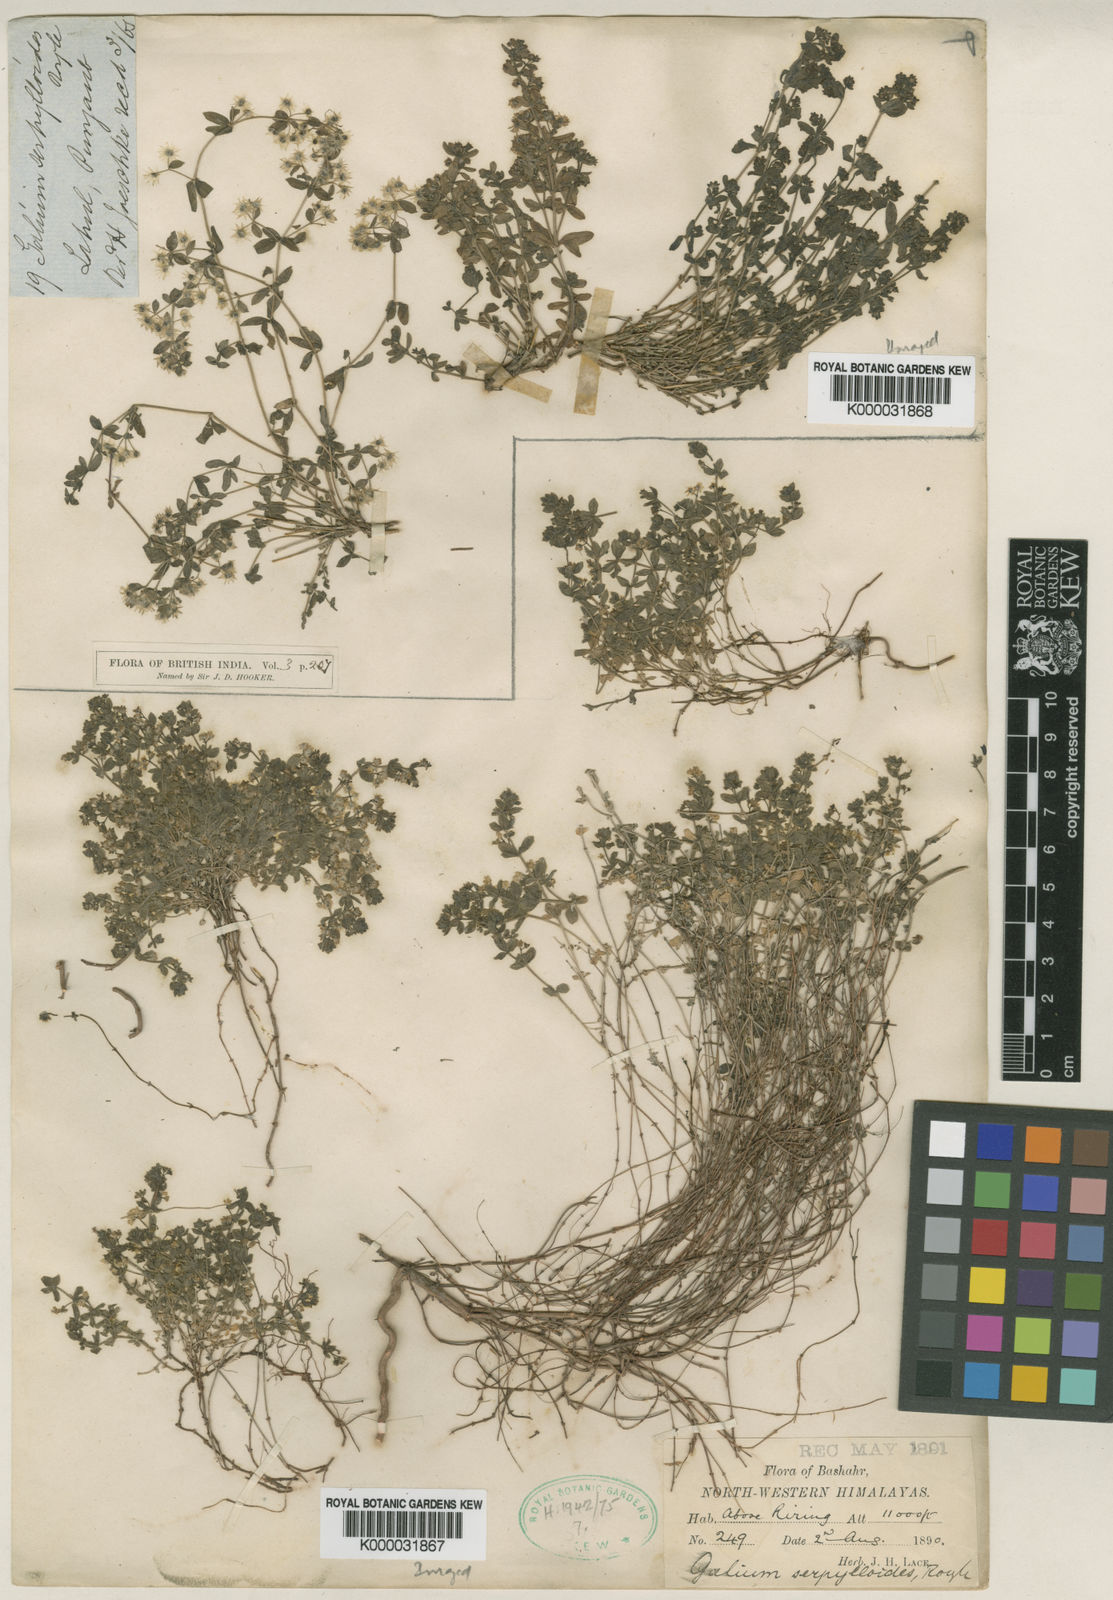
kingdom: Plantae
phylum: Tracheophyta
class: Magnoliopsida
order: Gentianales
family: Rubiaceae
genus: Galium
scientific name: Galium
